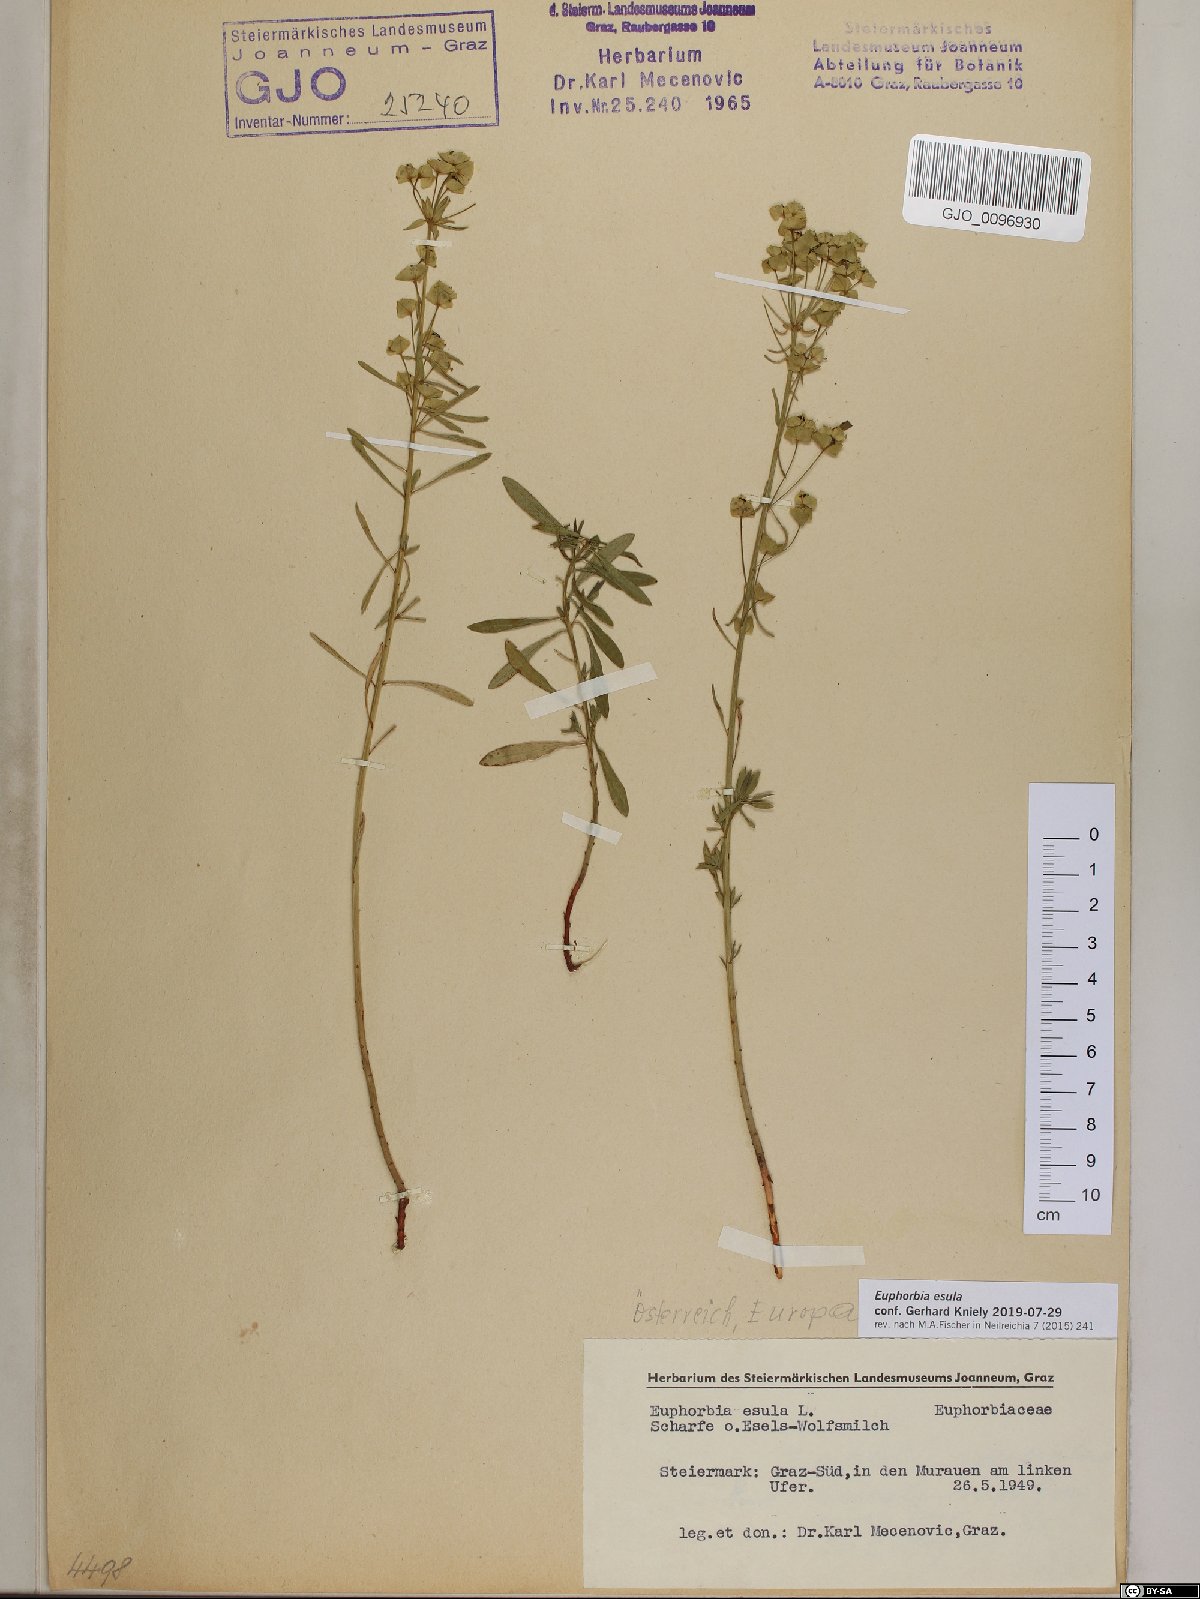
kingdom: Plantae
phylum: Tracheophyta
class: Magnoliopsida
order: Malpighiales
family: Euphorbiaceae
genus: Euphorbia
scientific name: Euphorbia esula
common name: Leafy spurge
